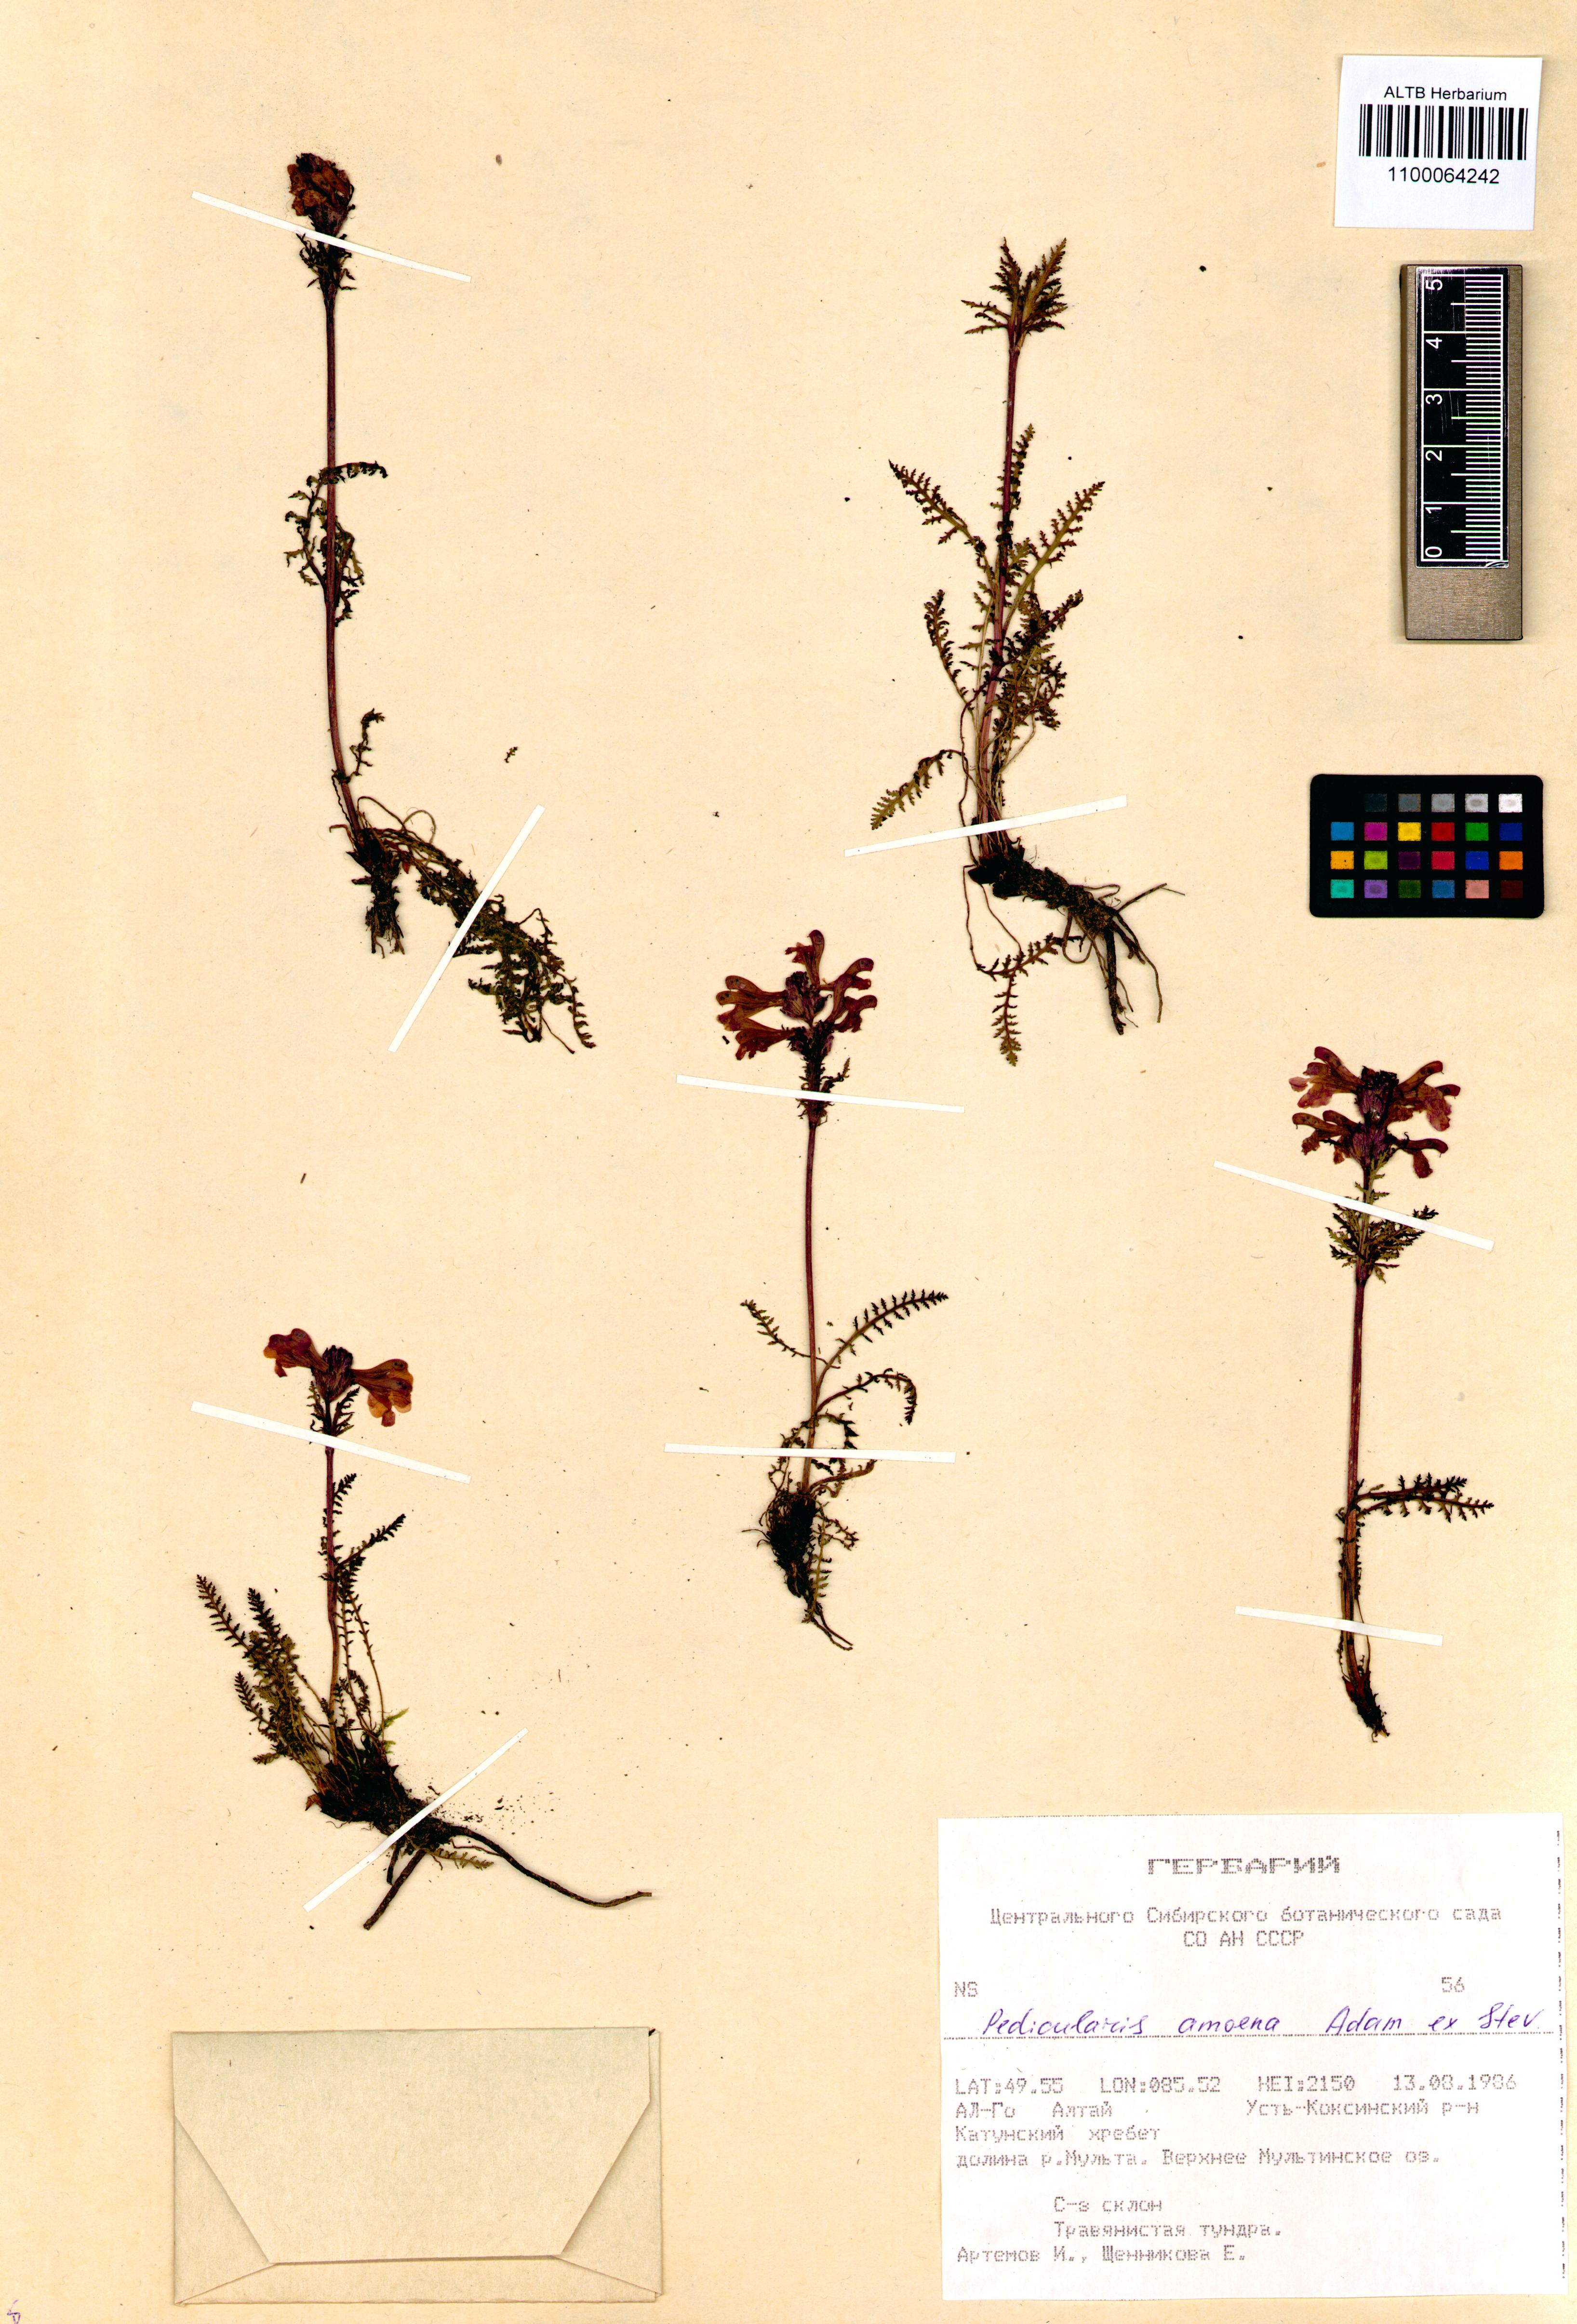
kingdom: Plantae
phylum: Tracheophyta
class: Magnoliopsida
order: Lamiales
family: Orobanchaceae
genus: Pedicularis
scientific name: Pedicularis amoena
